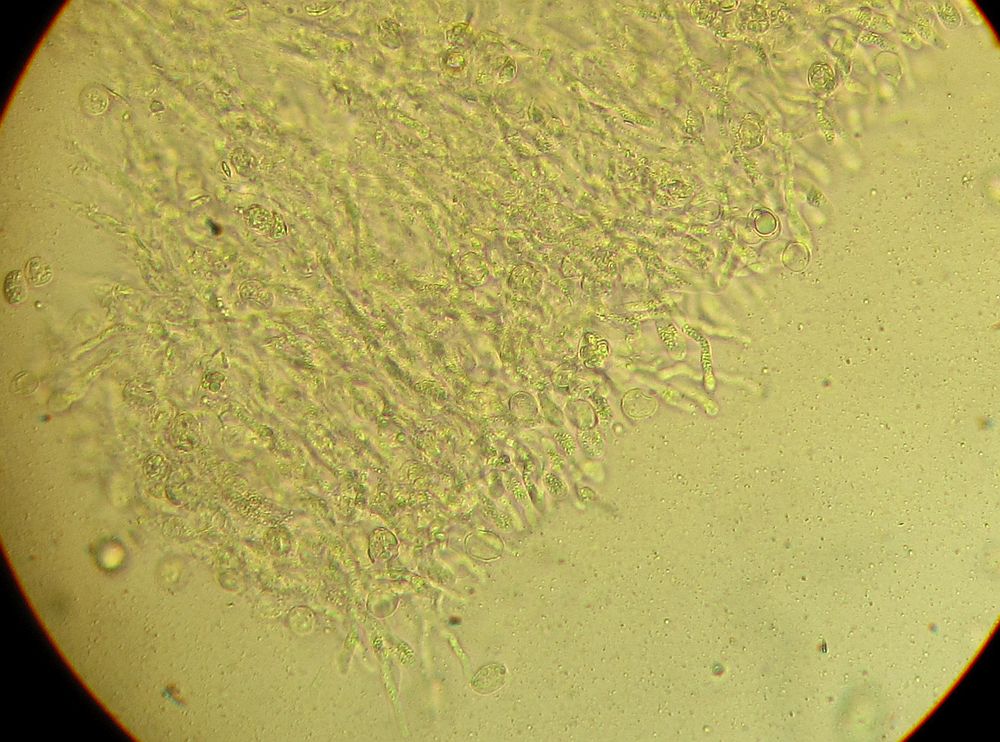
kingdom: Fungi
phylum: Basidiomycota
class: Agaricomycetes
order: Agaricales
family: Radulomycetaceae
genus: Radulomyces
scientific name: Radulomyces confluens
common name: glat naftalinskind
